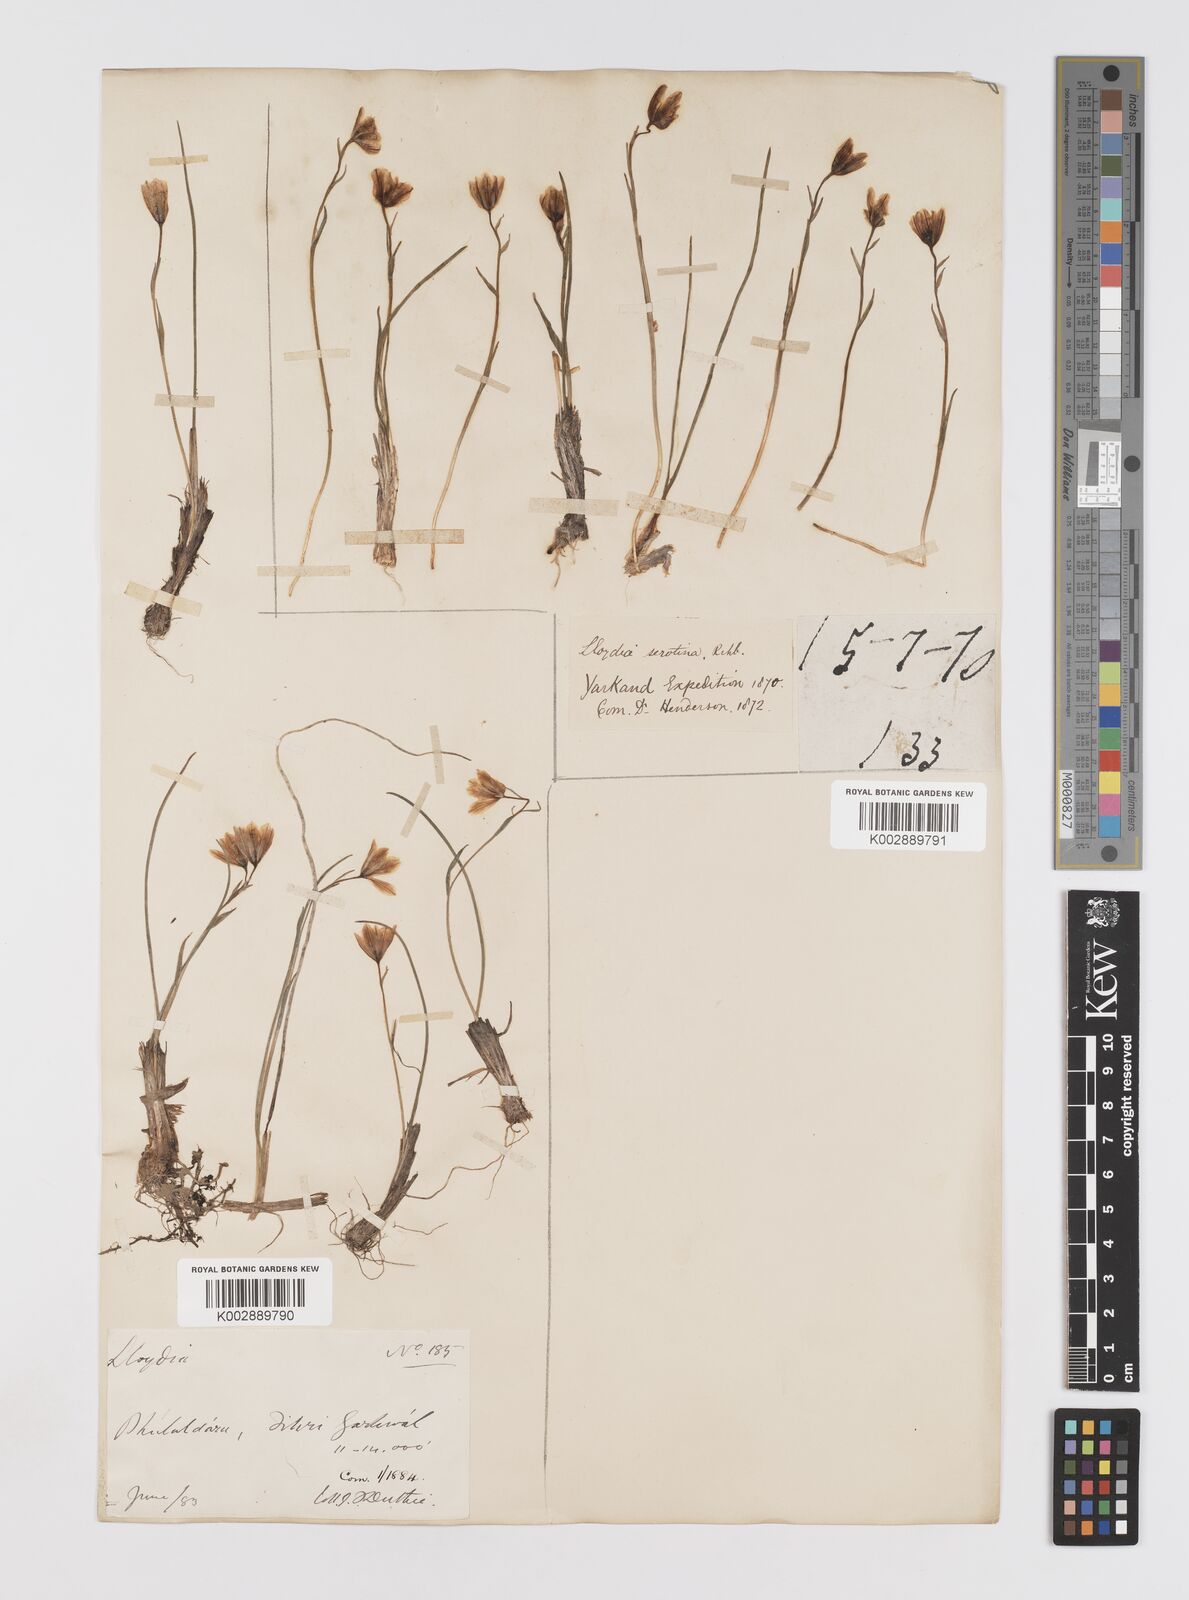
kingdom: Plantae
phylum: Tracheophyta
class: Liliopsida
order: Liliales
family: Liliaceae
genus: Gagea
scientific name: Gagea serotina
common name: Snowdon lily
